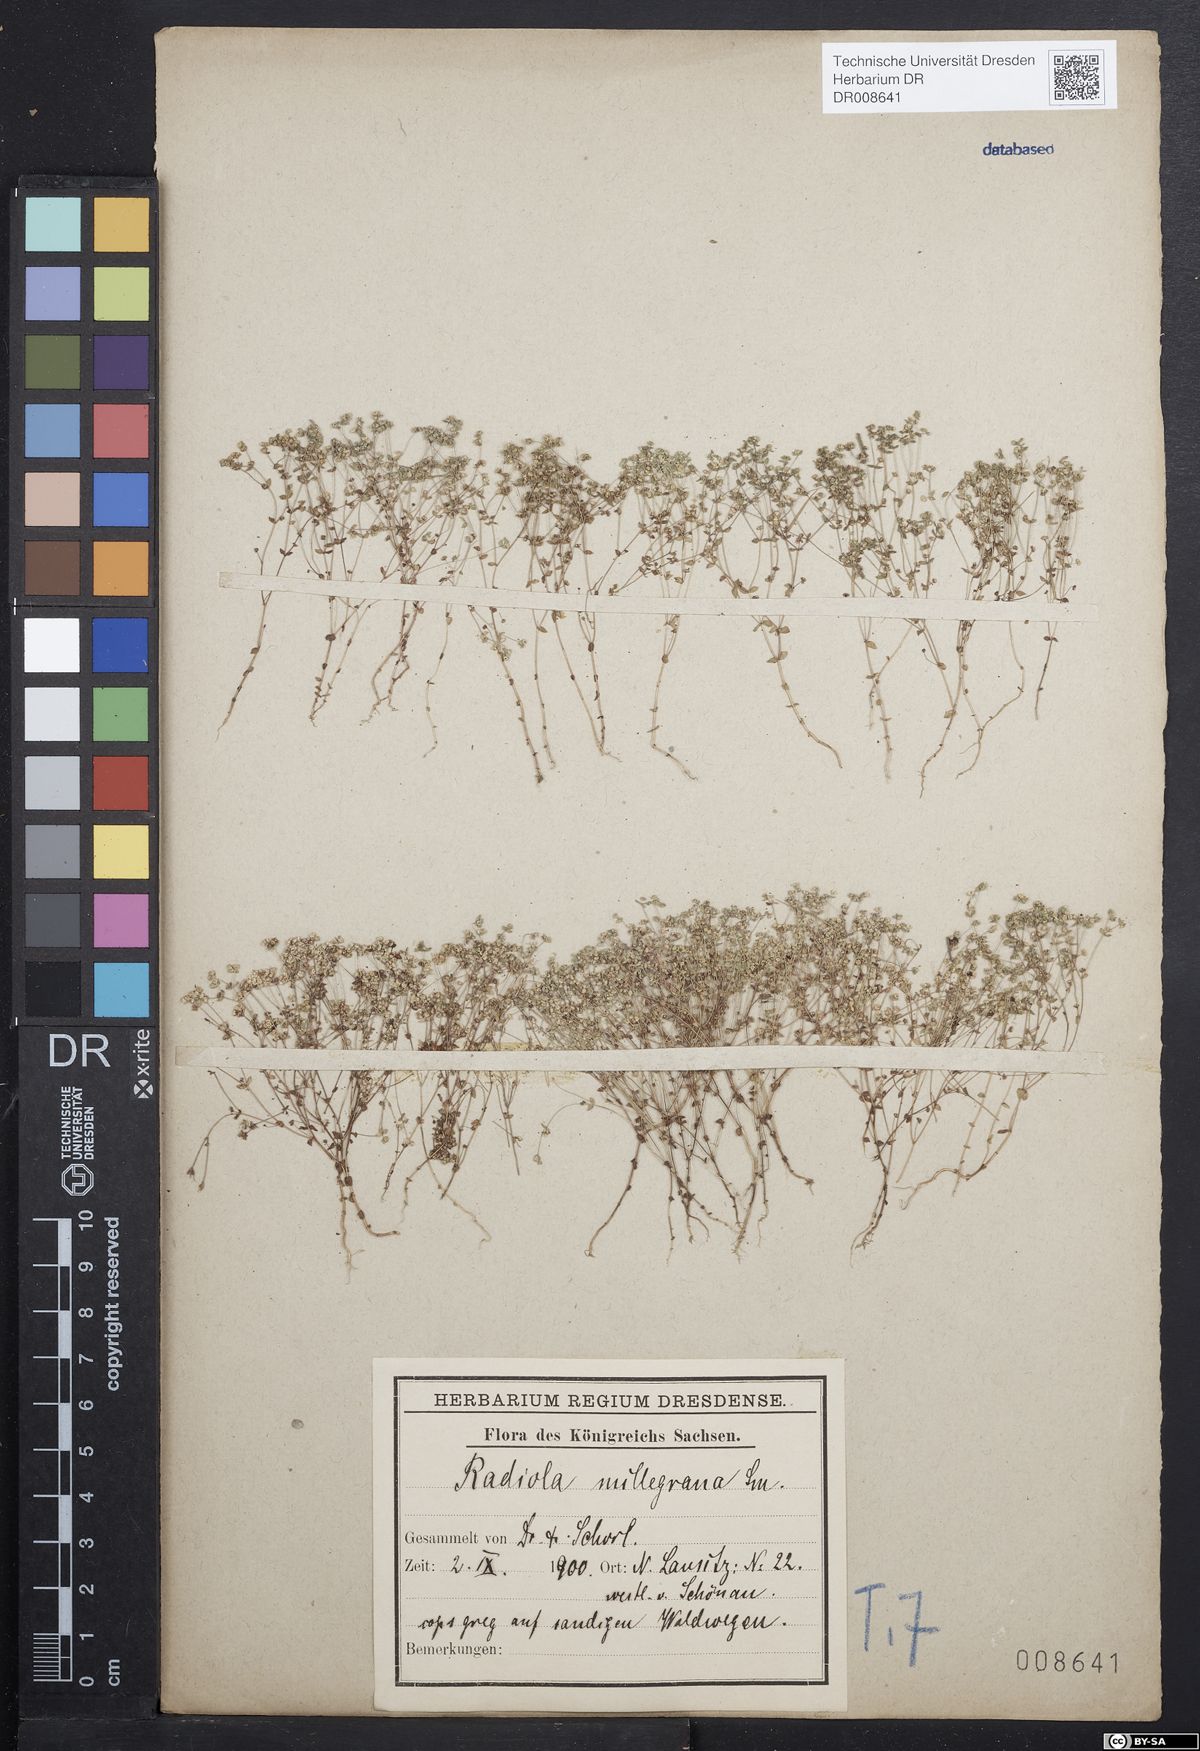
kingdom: Plantae
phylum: Tracheophyta
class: Magnoliopsida
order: Malpighiales
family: Linaceae
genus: Radiola
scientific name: Radiola linoides
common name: Allseed
